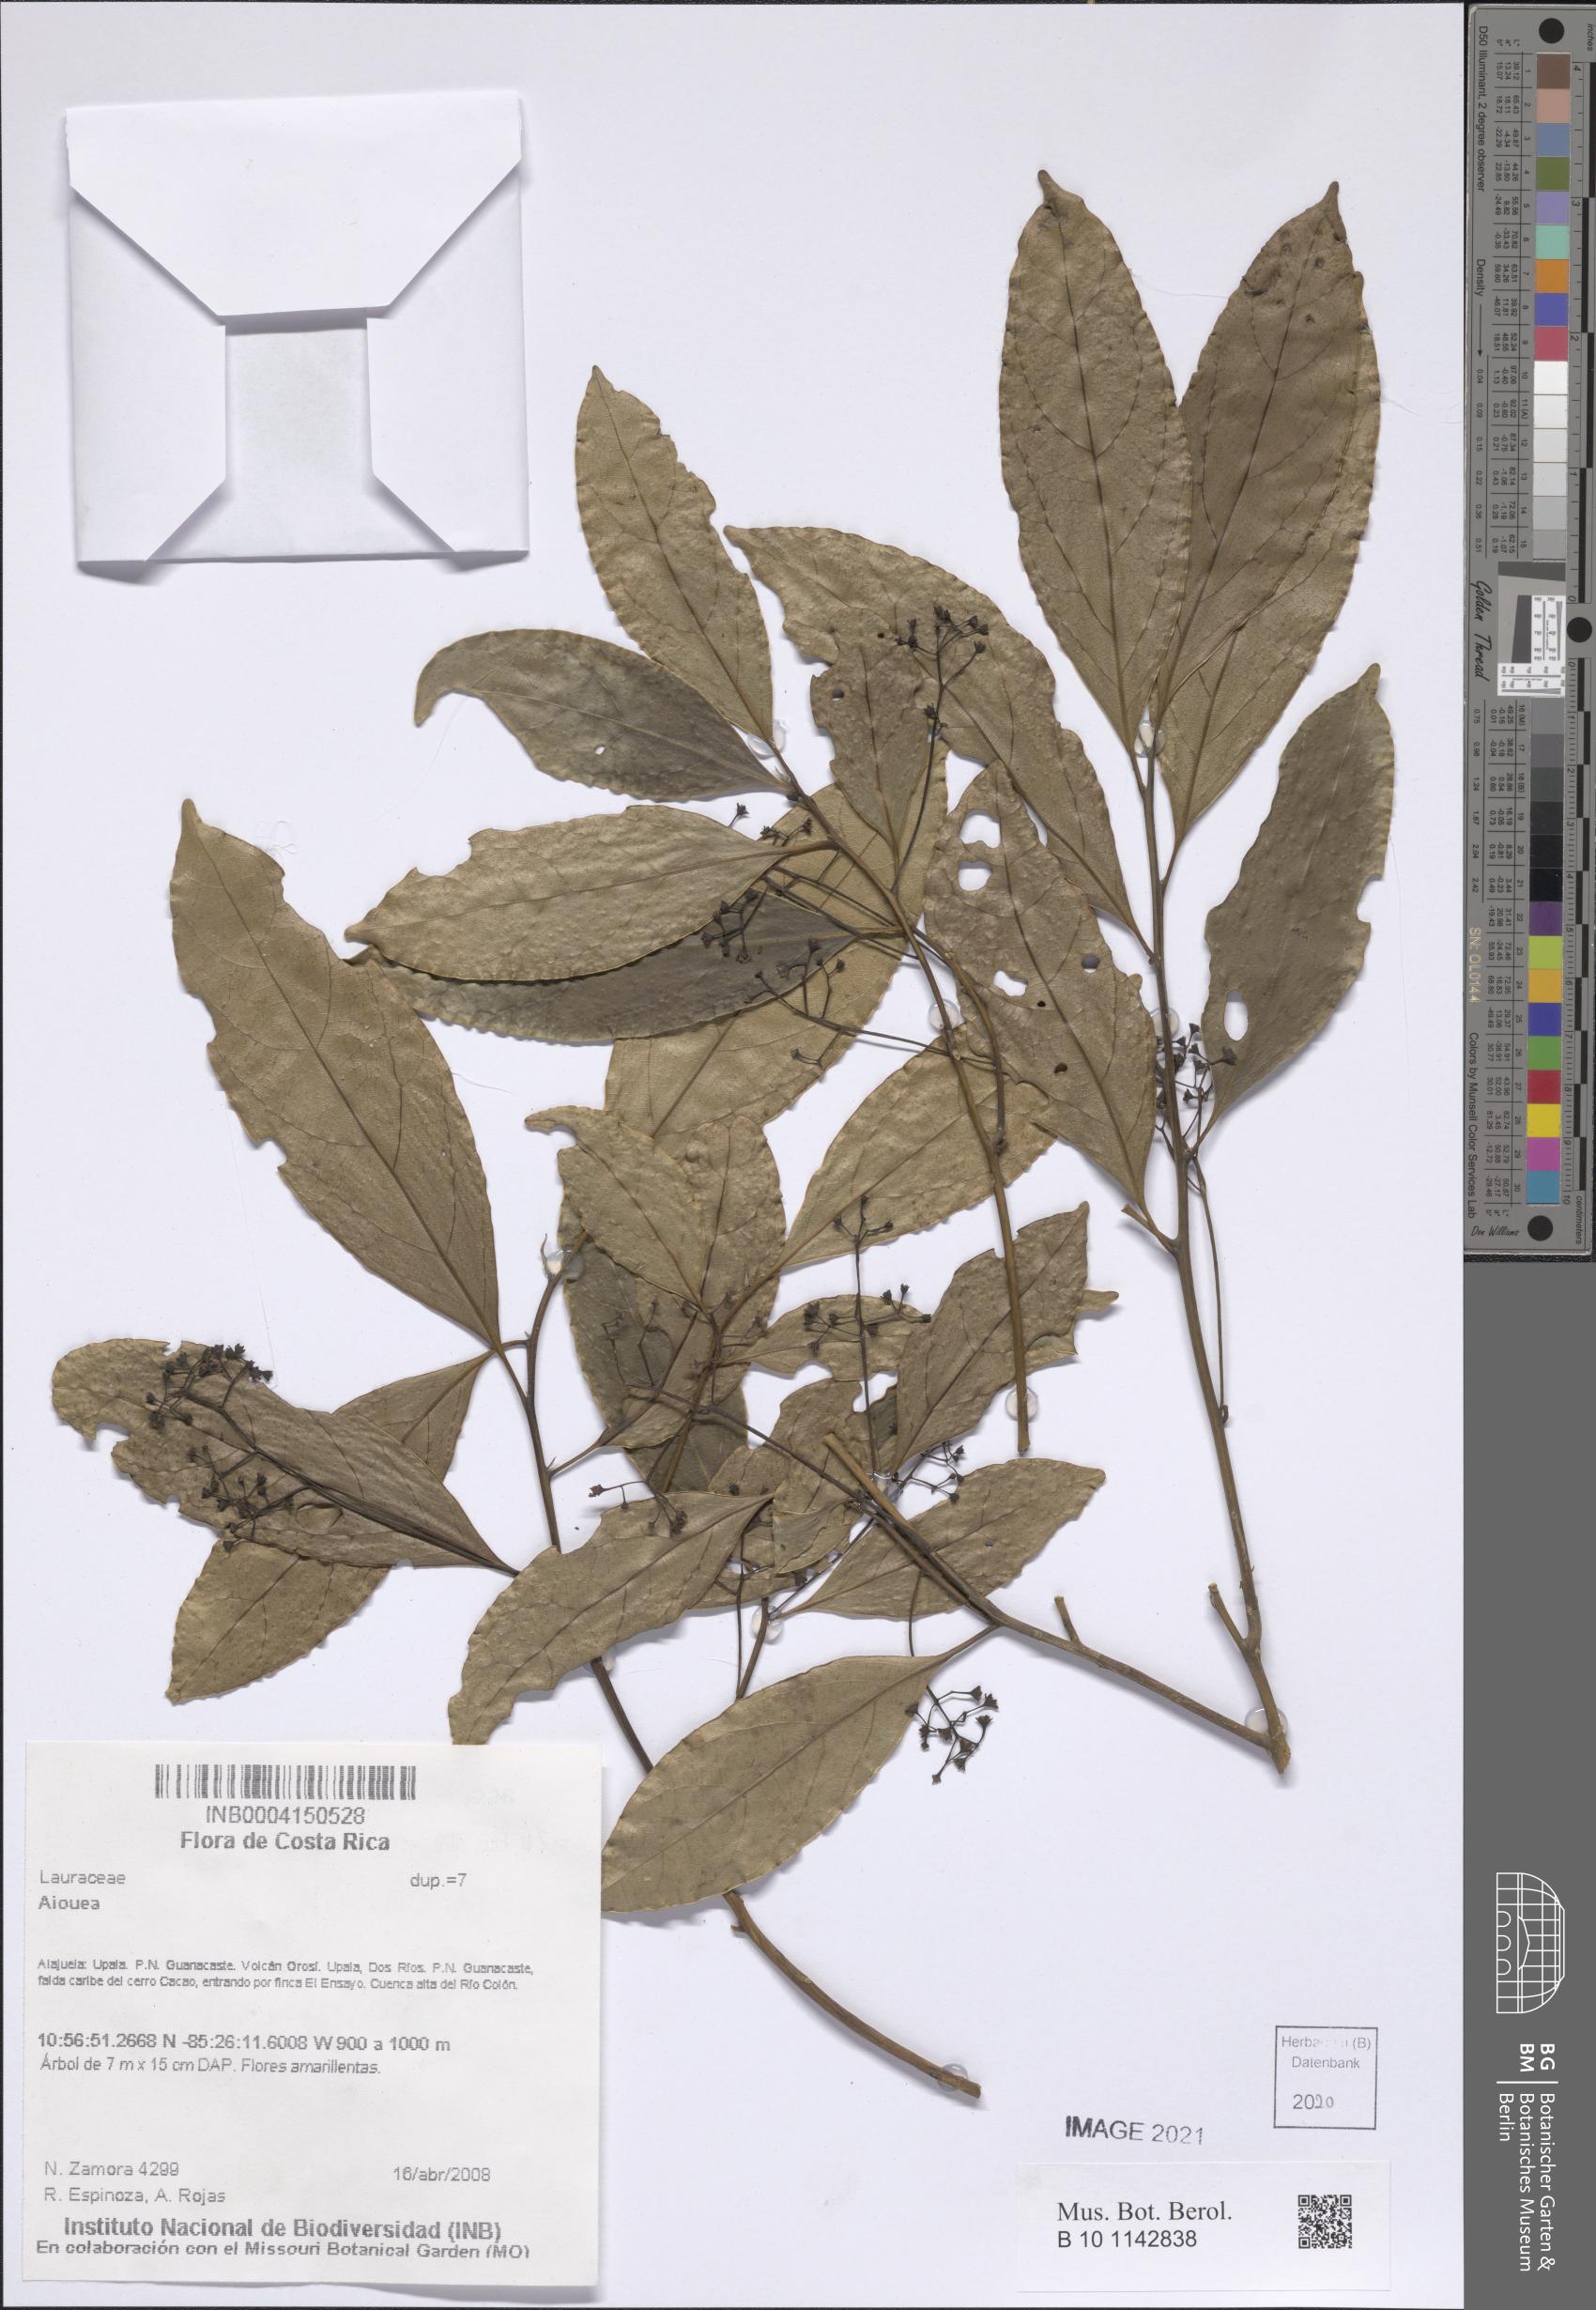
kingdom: Plantae
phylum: Tracheophyta
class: Magnoliopsida
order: Laurales
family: Lauraceae
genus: Aiouea
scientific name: Aiouea
